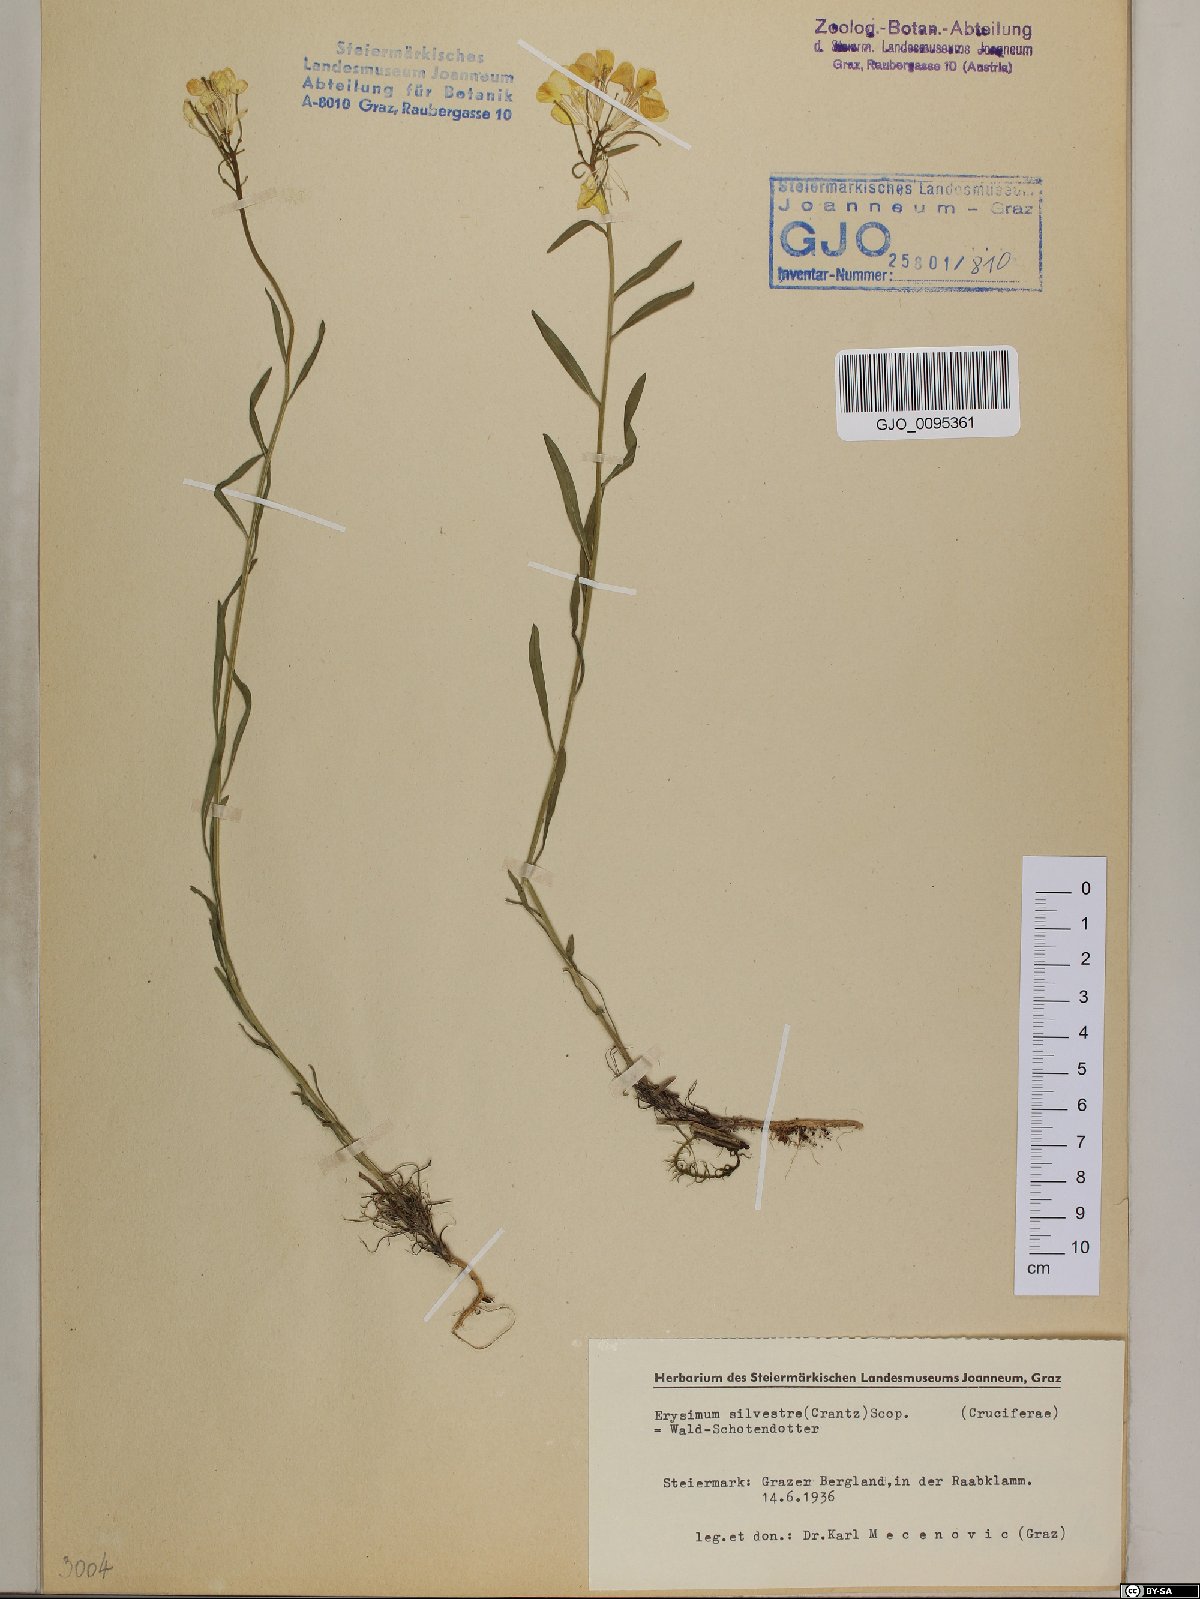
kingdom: Plantae
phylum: Tracheophyta
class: Magnoliopsida
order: Brassicales
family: Brassicaceae
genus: Erysimum
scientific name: Erysimum sylvestre
